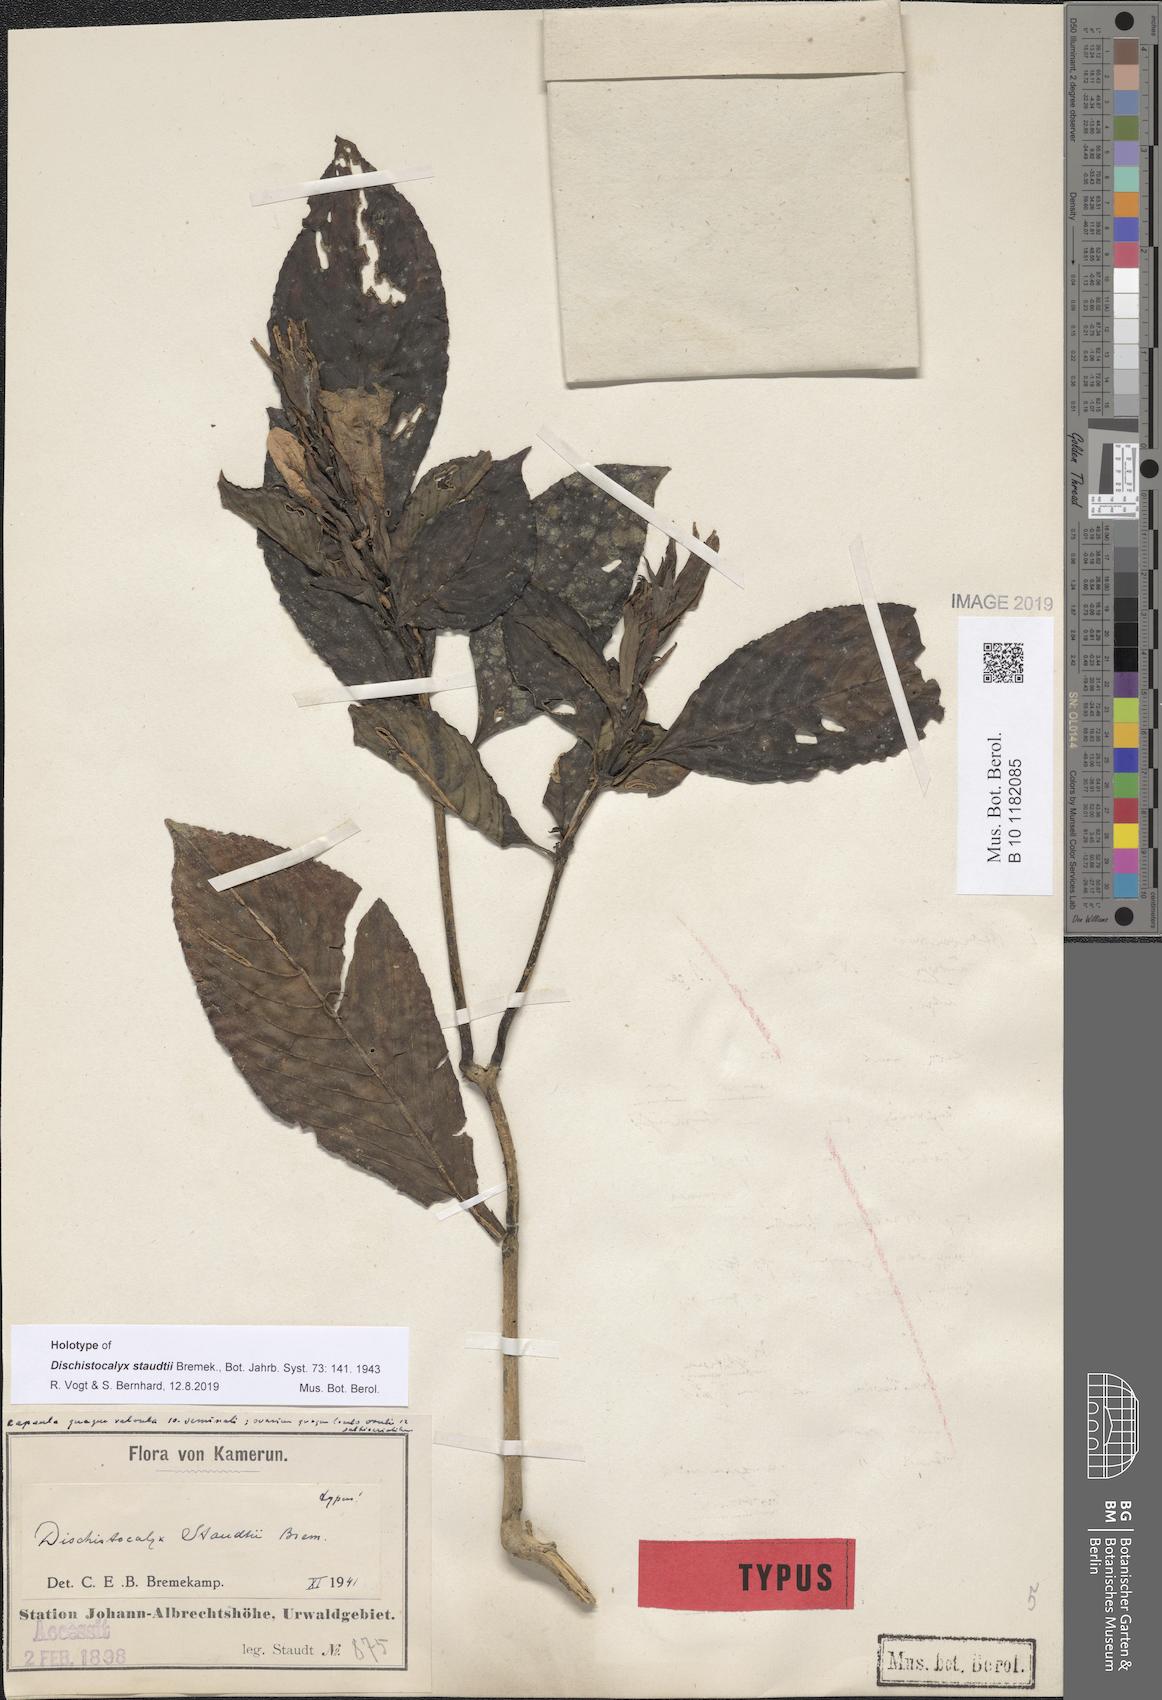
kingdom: Plantae
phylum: Tracheophyta
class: Magnoliopsida
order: Lamiales
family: Acanthaceae
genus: Dischistocalyx
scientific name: Dischistocalyx obanensis
